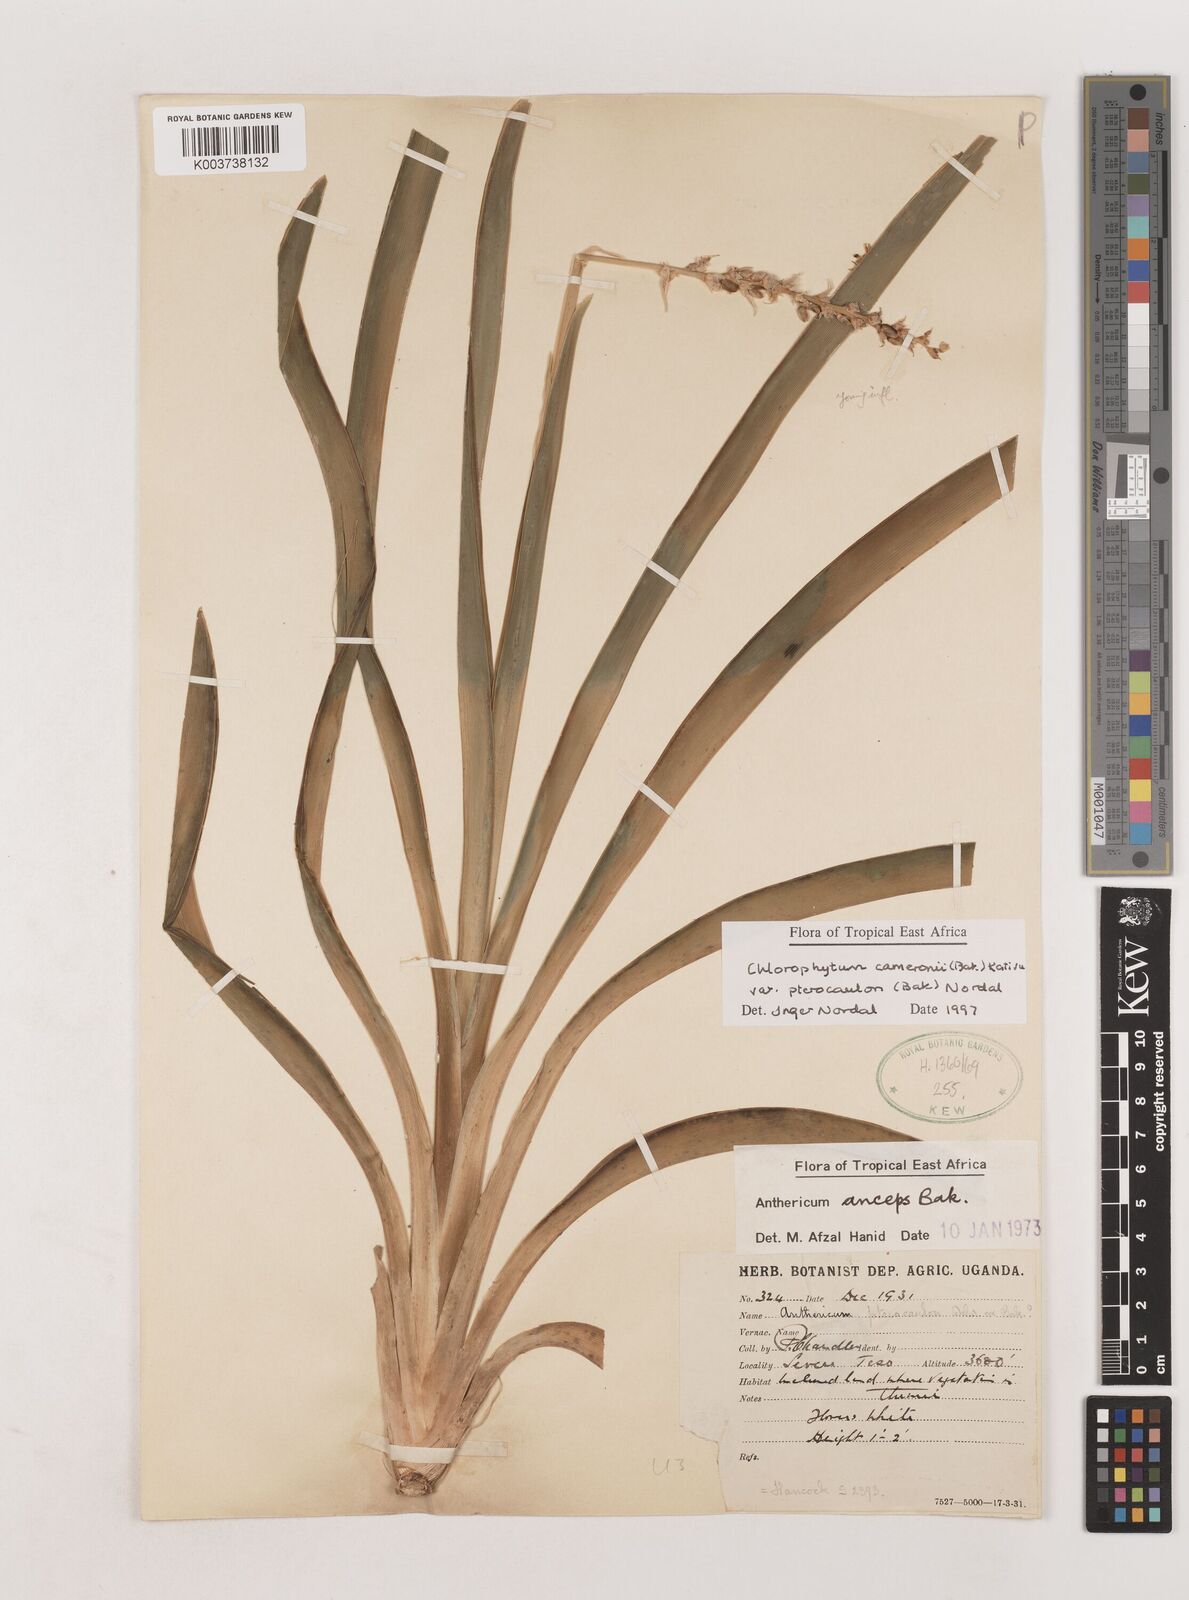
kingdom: Plantae
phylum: Tracheophyta
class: Liliopsida
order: Asparagales
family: Asparagaceae
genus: Chlorophytum
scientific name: Chlorophytum cameronii
